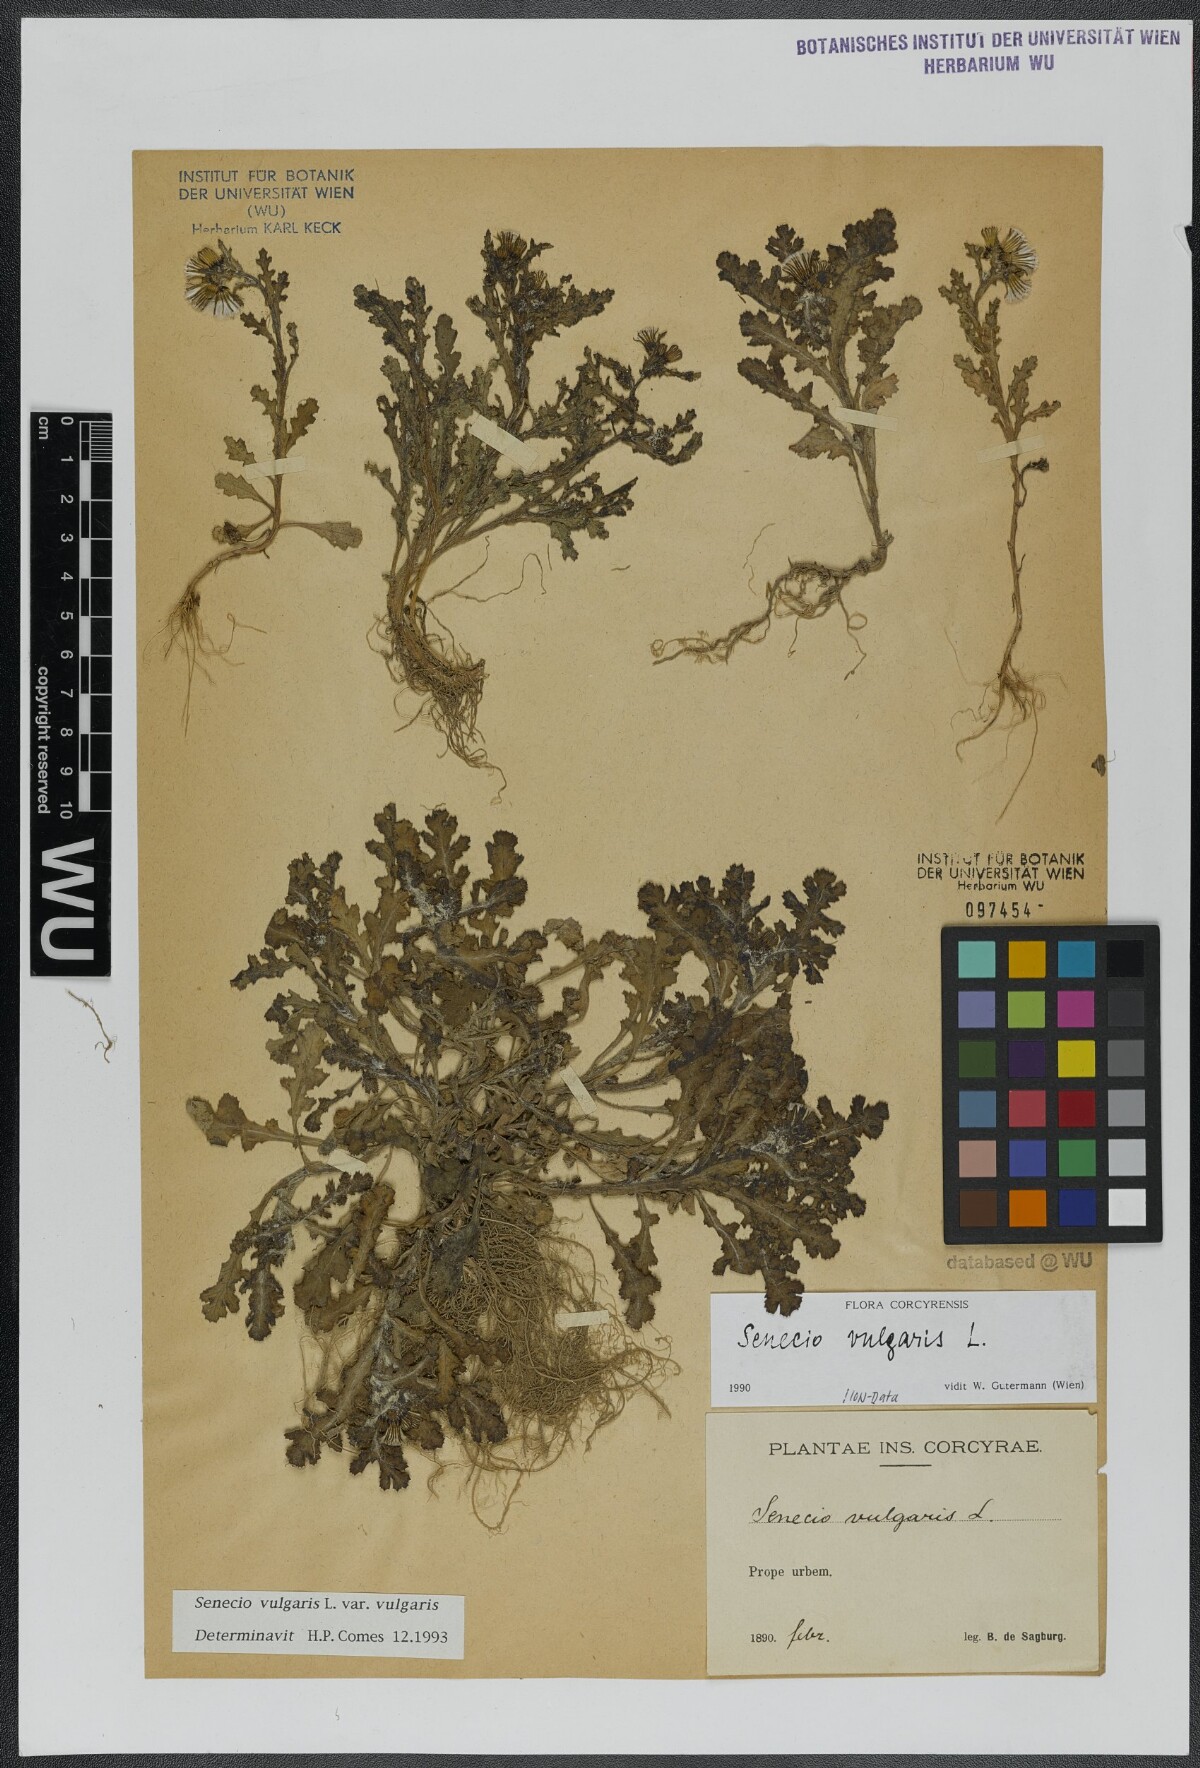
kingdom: Plantae
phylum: Tracheophyta
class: Magnoliopsida
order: Asterales
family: Asteraceae
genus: Senecio
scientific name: Senecio vulgaris
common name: Old-man-in-the-spring
